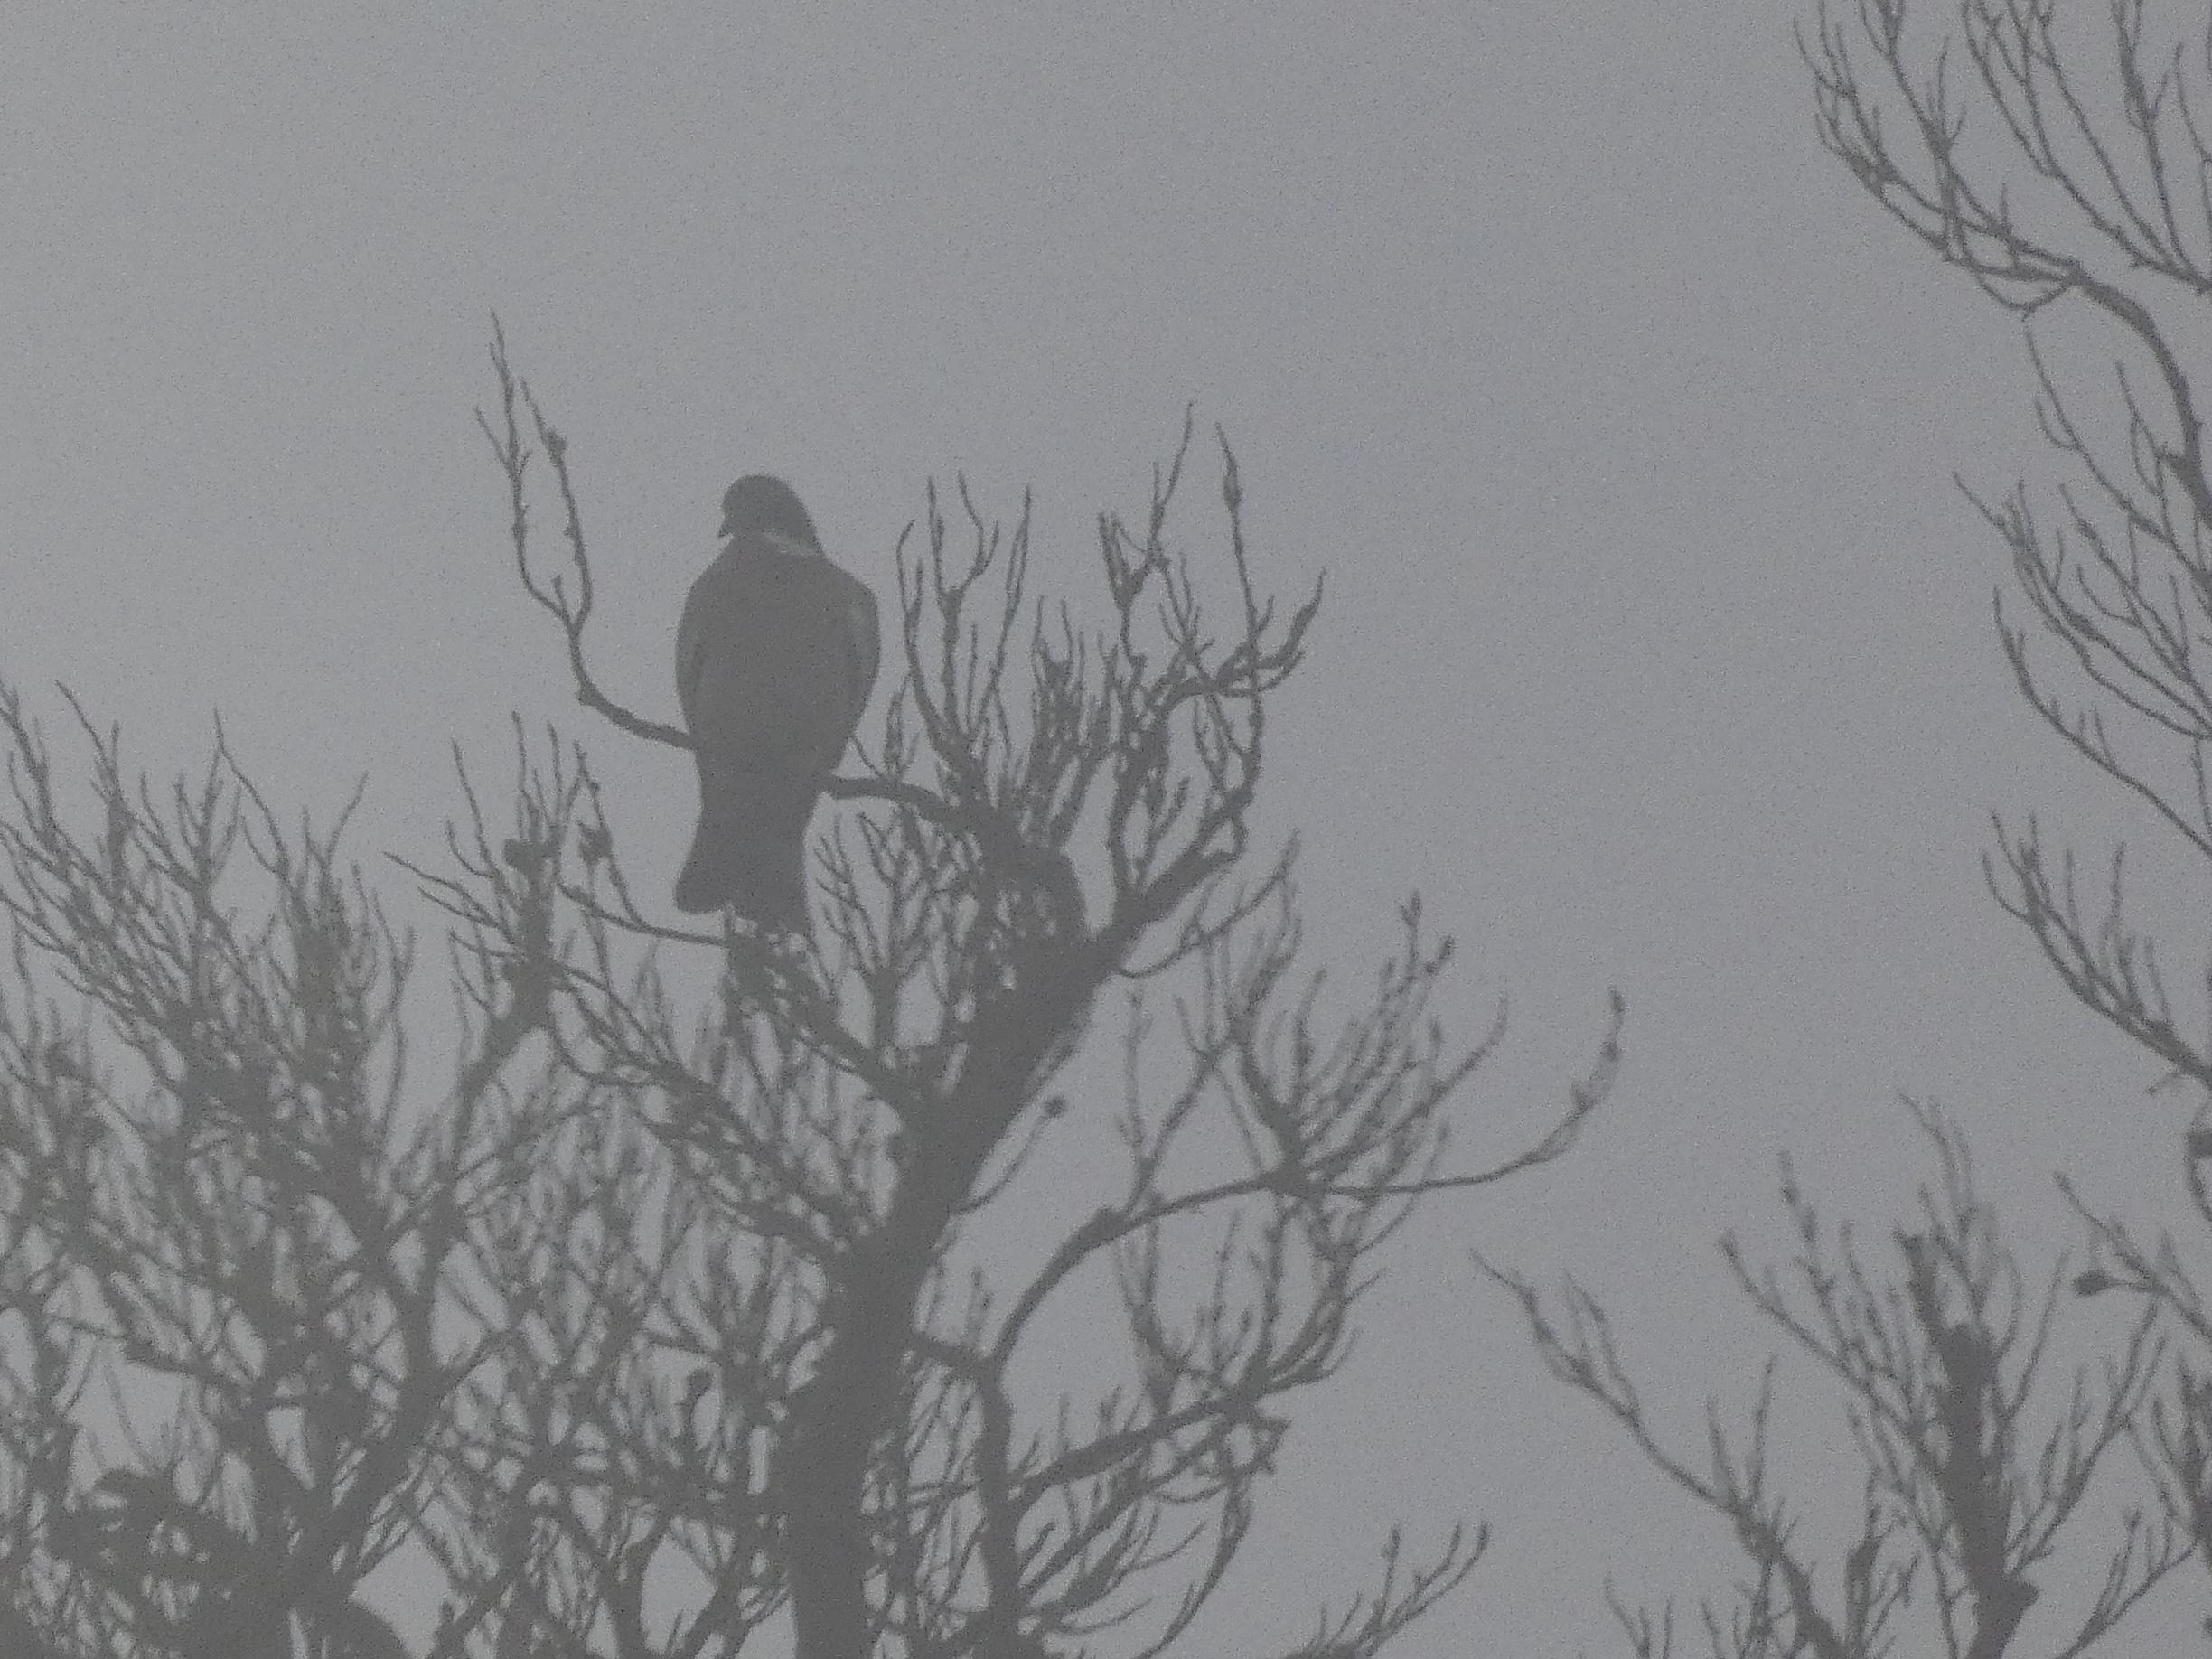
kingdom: Animalia
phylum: Chordata
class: Aves
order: Columbiformes
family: Columbidae
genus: Columba
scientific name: Columba palumbus
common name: Ringdue
